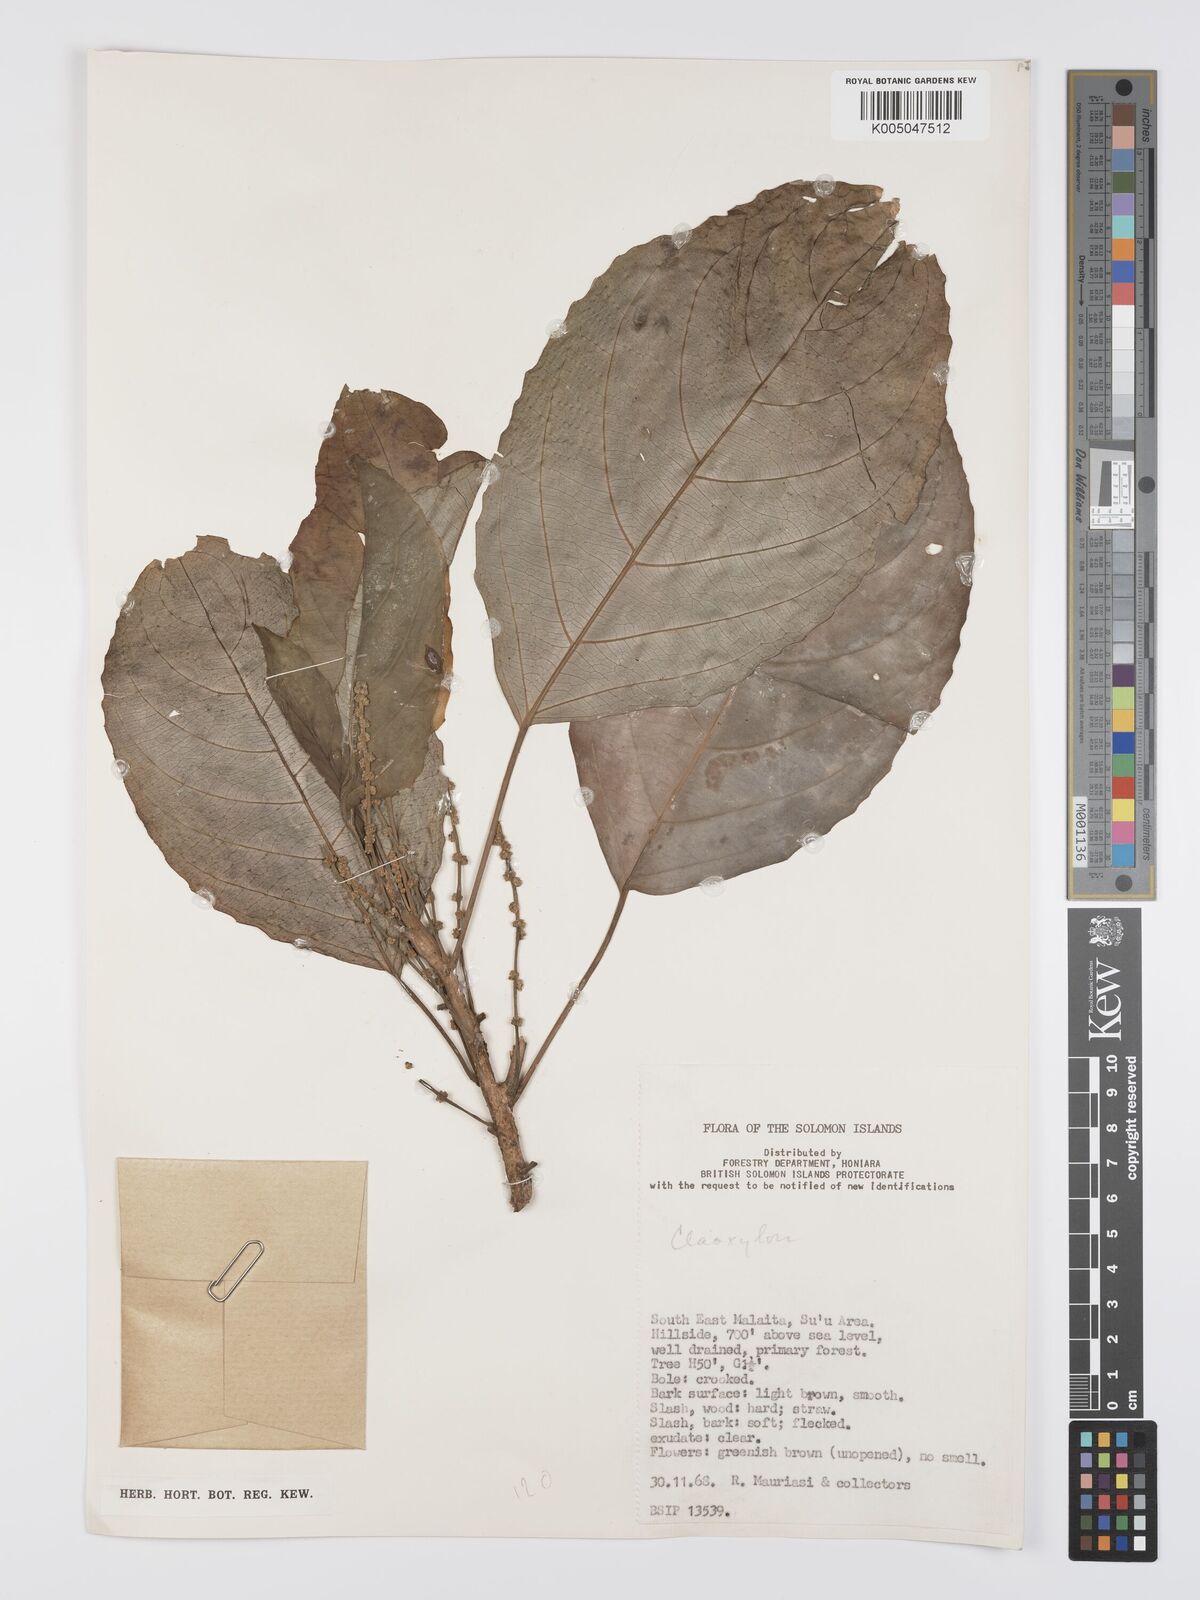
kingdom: Plantae
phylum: Tracheophyta
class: Magnoliopsida
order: Malpighiales
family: Euphorbiaceae
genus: Claoxylon
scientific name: Claoxylon carolinianum
